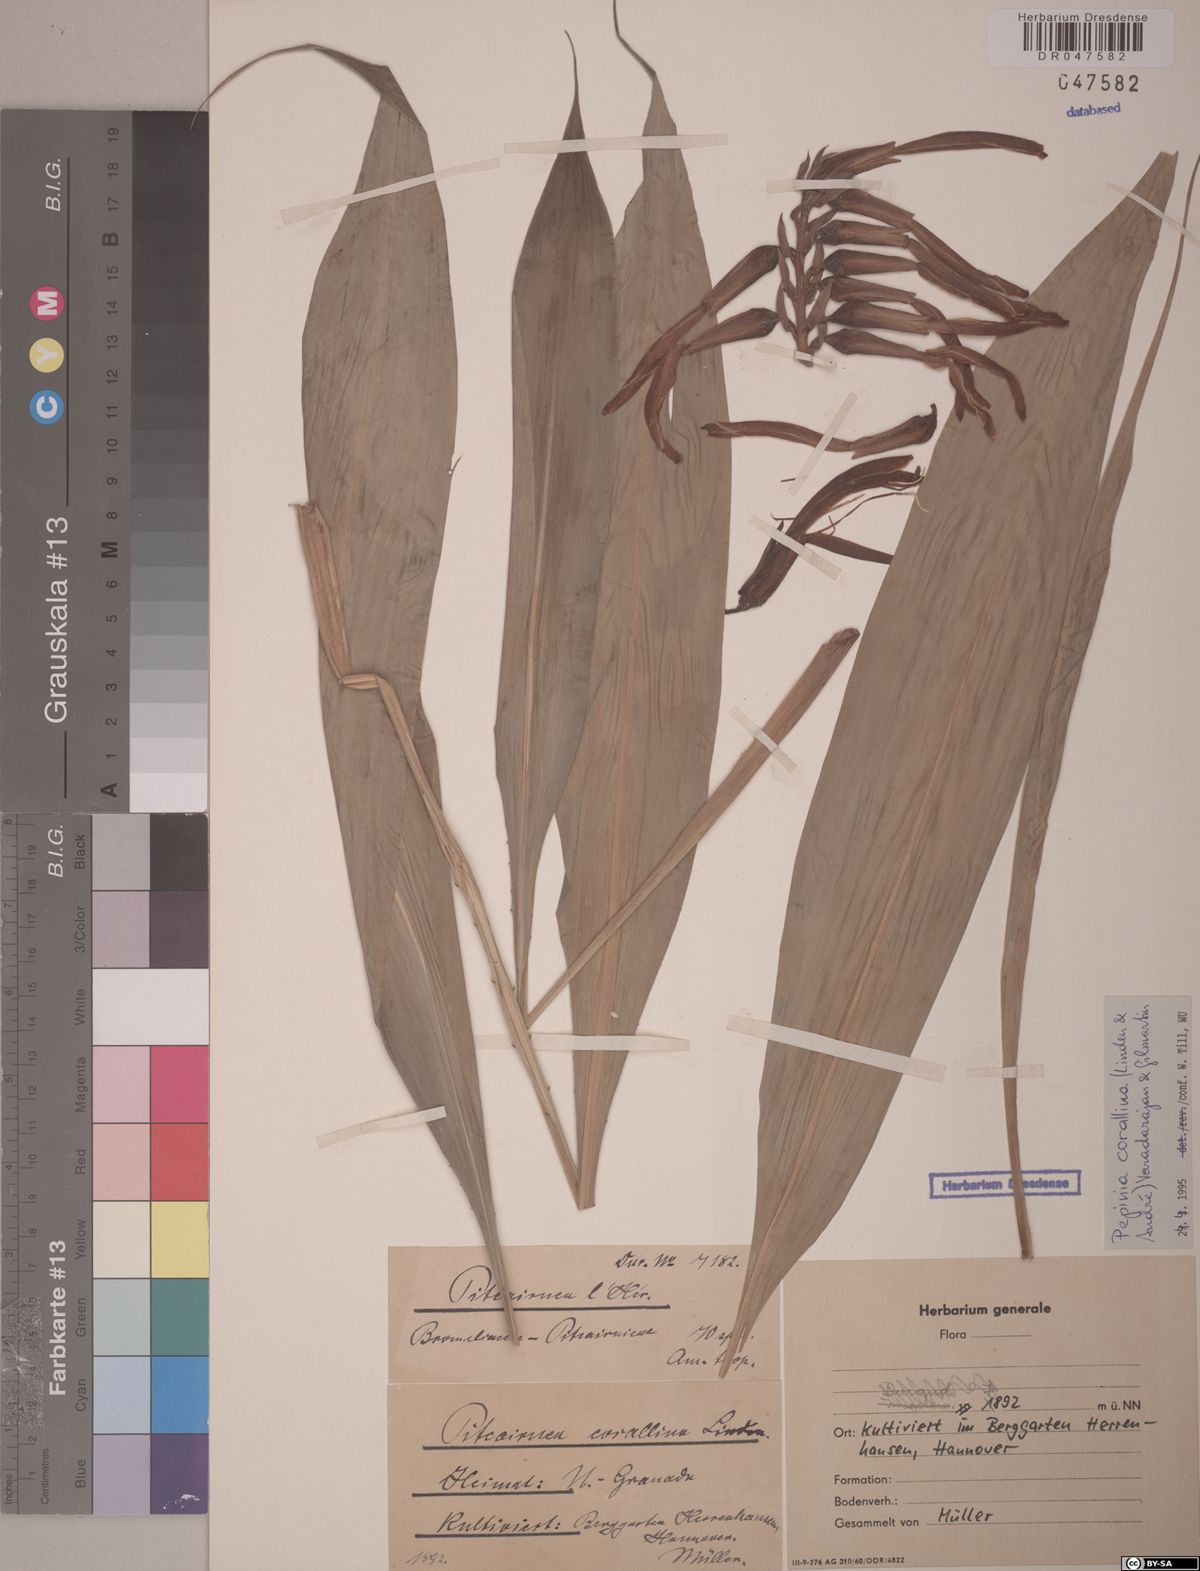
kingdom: Plantae
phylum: Tracheophyta
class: Liliopsida
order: Poales
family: Bromeliaceae
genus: Pitcairnia
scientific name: Pitcairnia corallina
